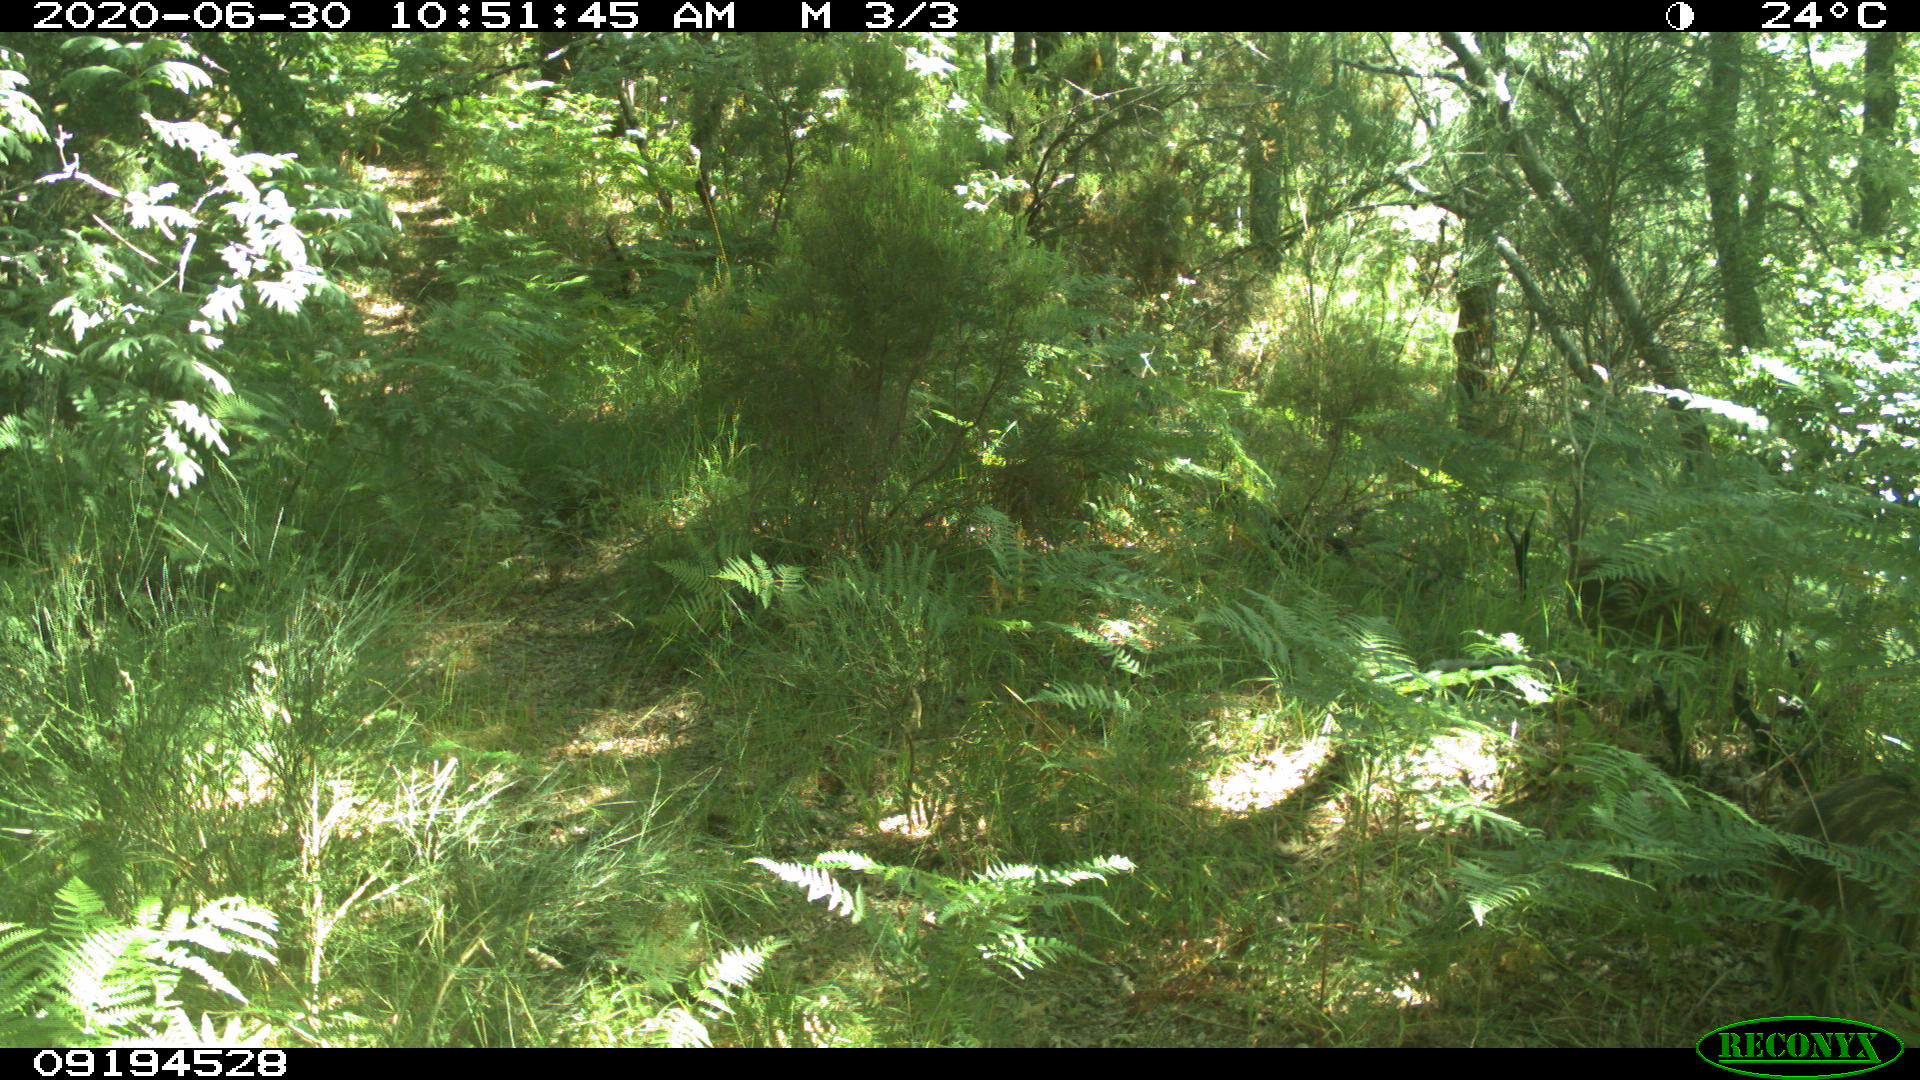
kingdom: Animalia
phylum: Chordata
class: Mammalia
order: Artiodactyla
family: Suidae
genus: Sus
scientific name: Sus scrofa
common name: Wild boar
